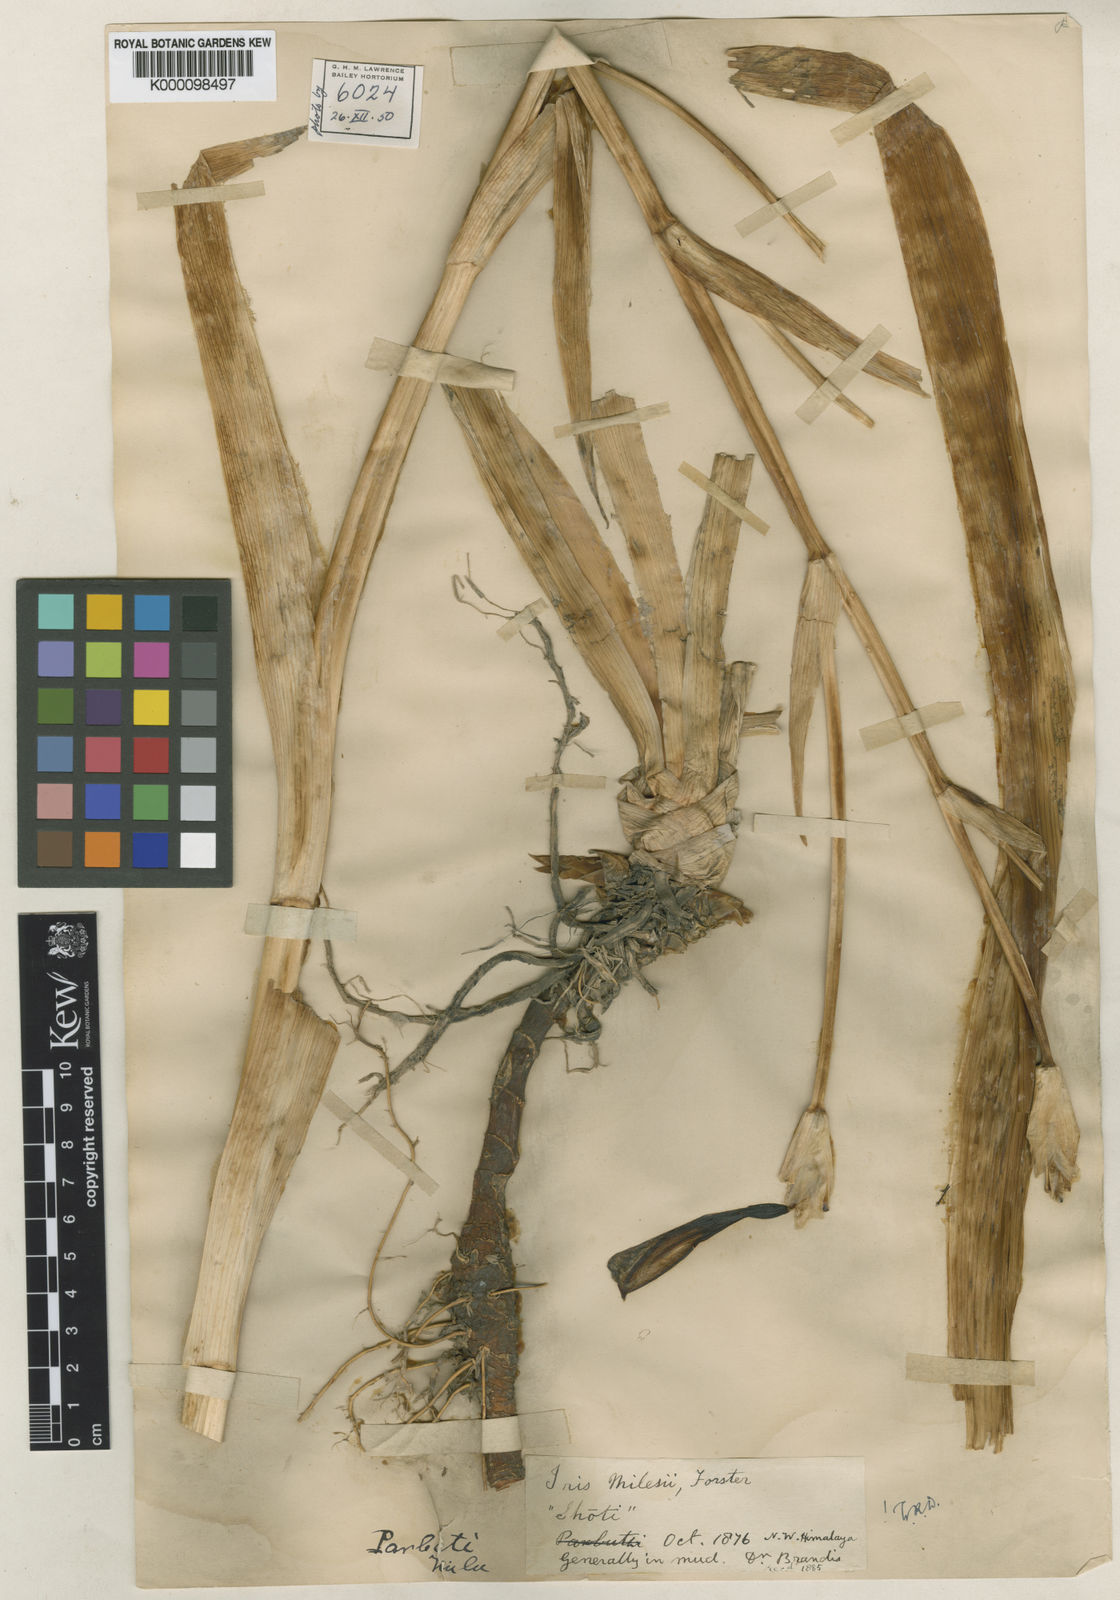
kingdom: Plantae
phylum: Tracheophyta
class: Liliopsida
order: Asparagales
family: Iridaceae
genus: Iris
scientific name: Iris milesii
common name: Red-flower iris
